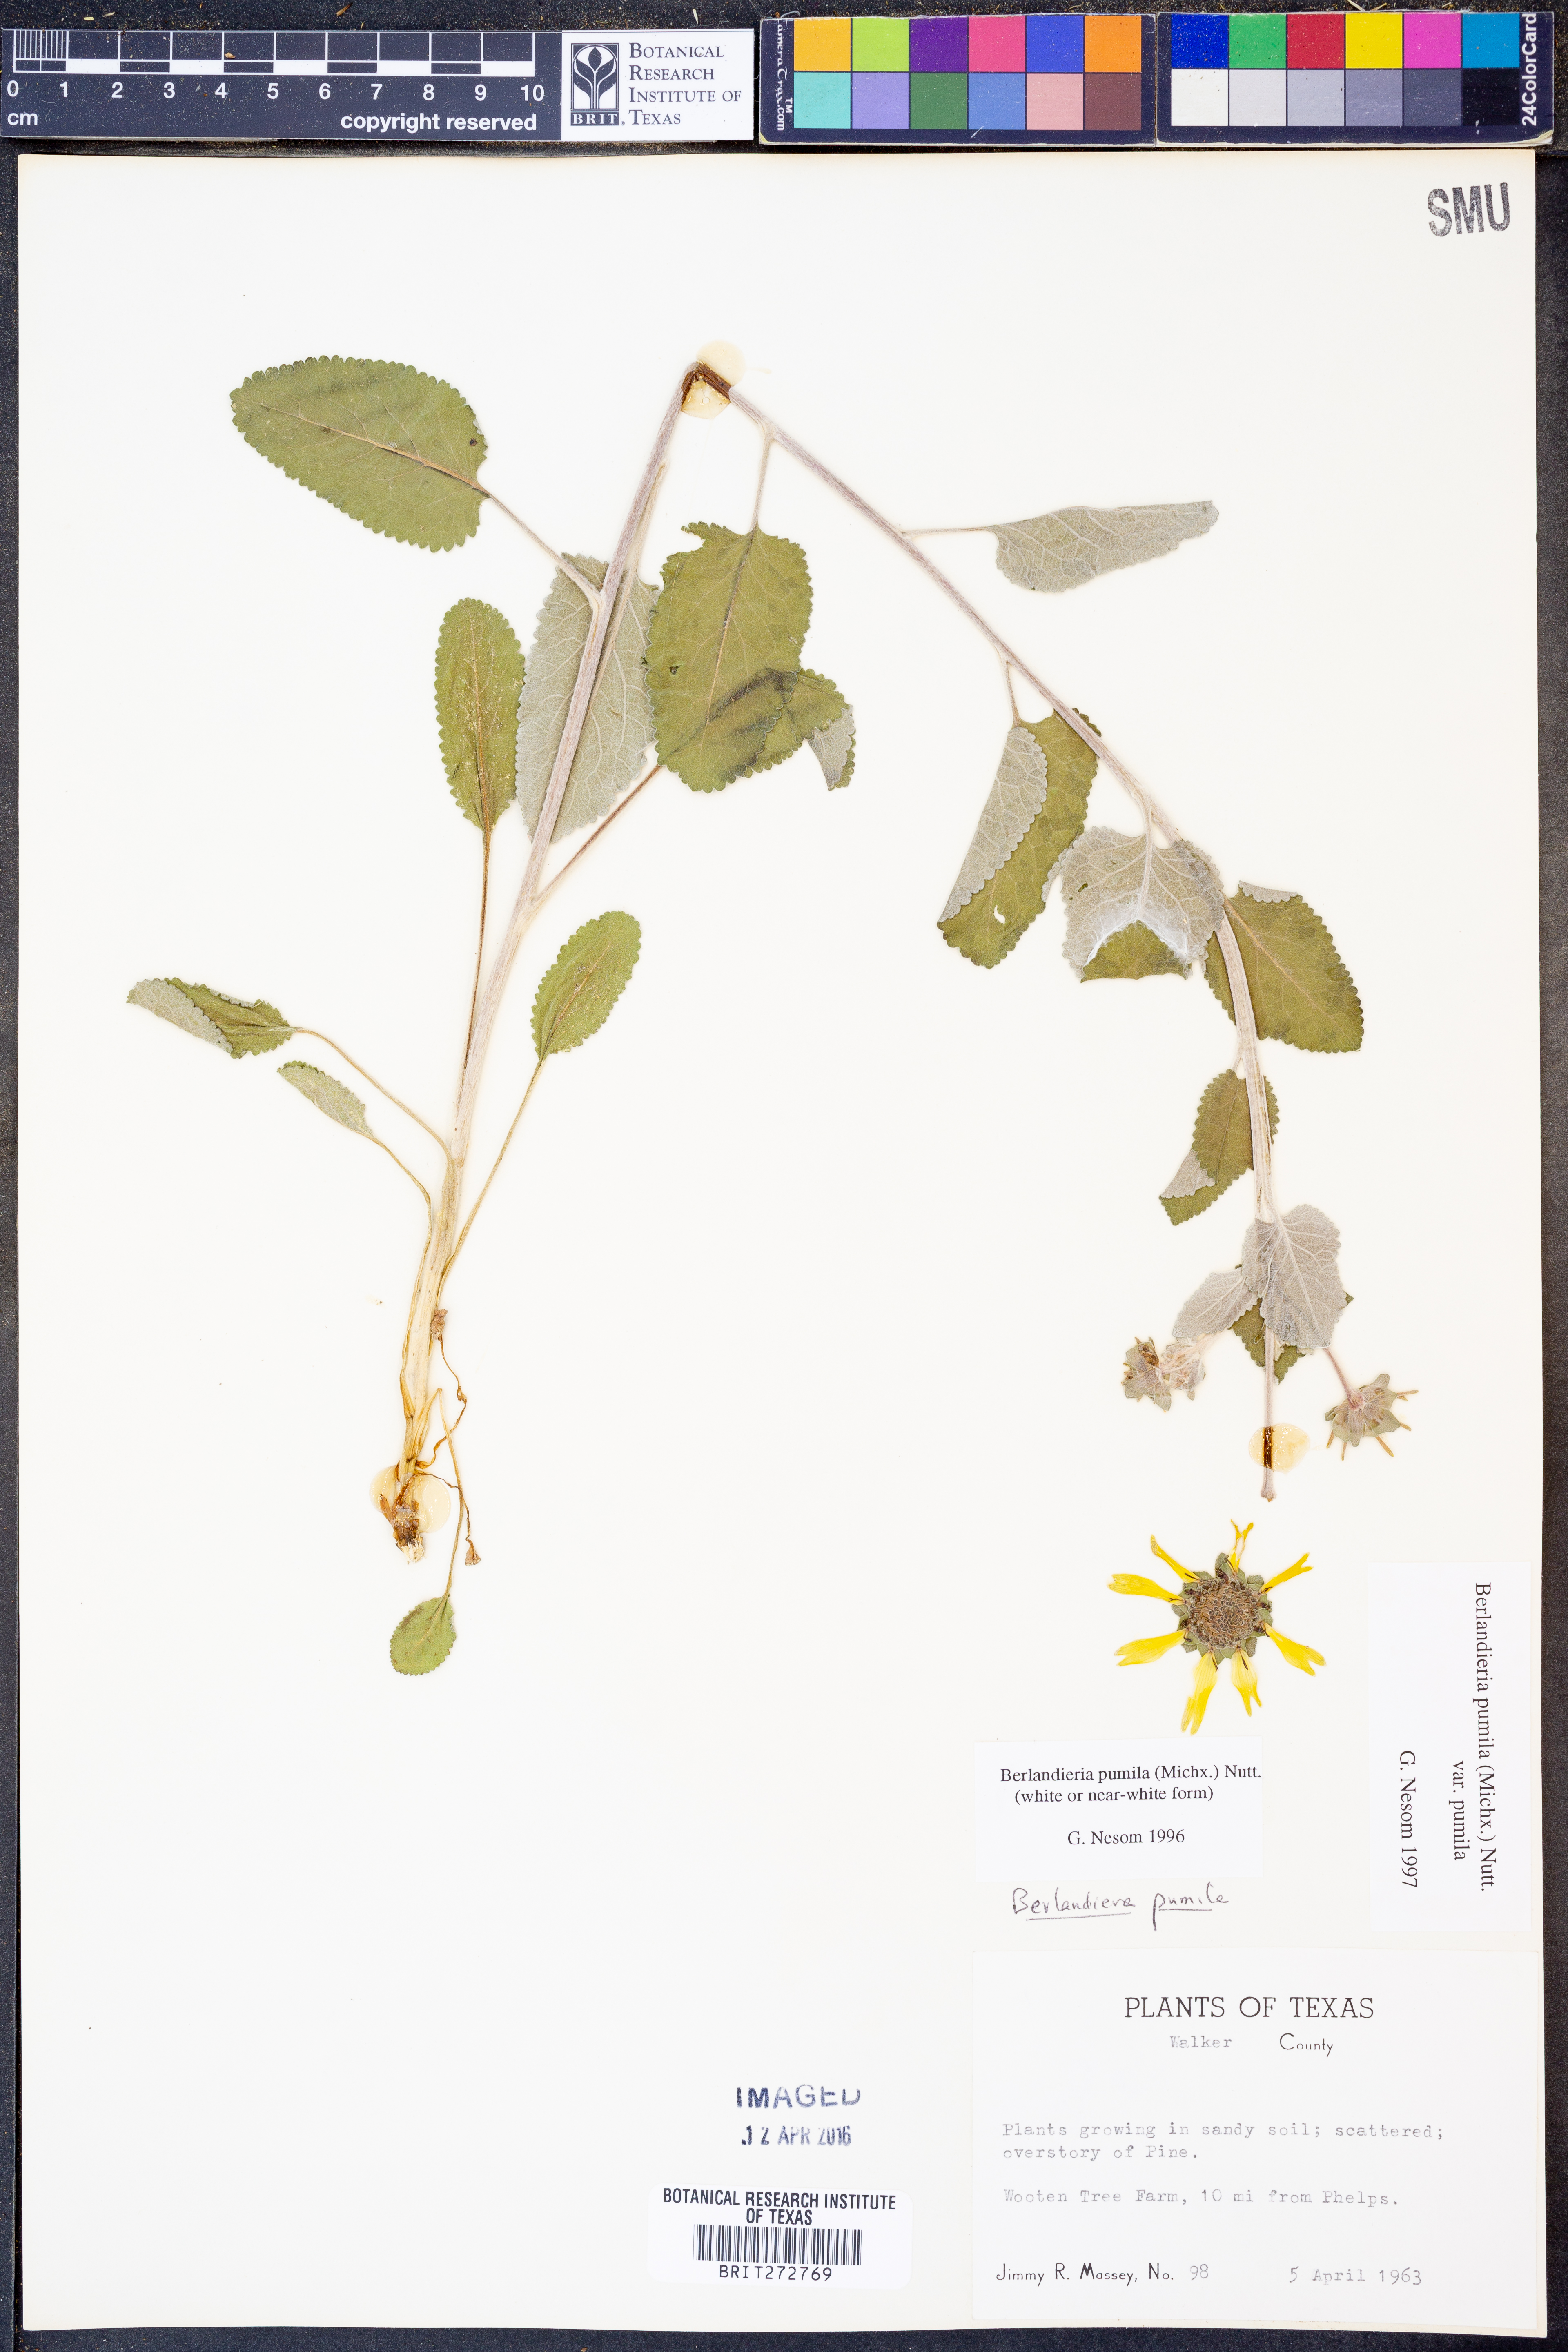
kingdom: Plantae
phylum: Tracheophyta
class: Magnoliopsida
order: Asterales
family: Asteraceae
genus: Berlandiera
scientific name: Berlandiera pumila
